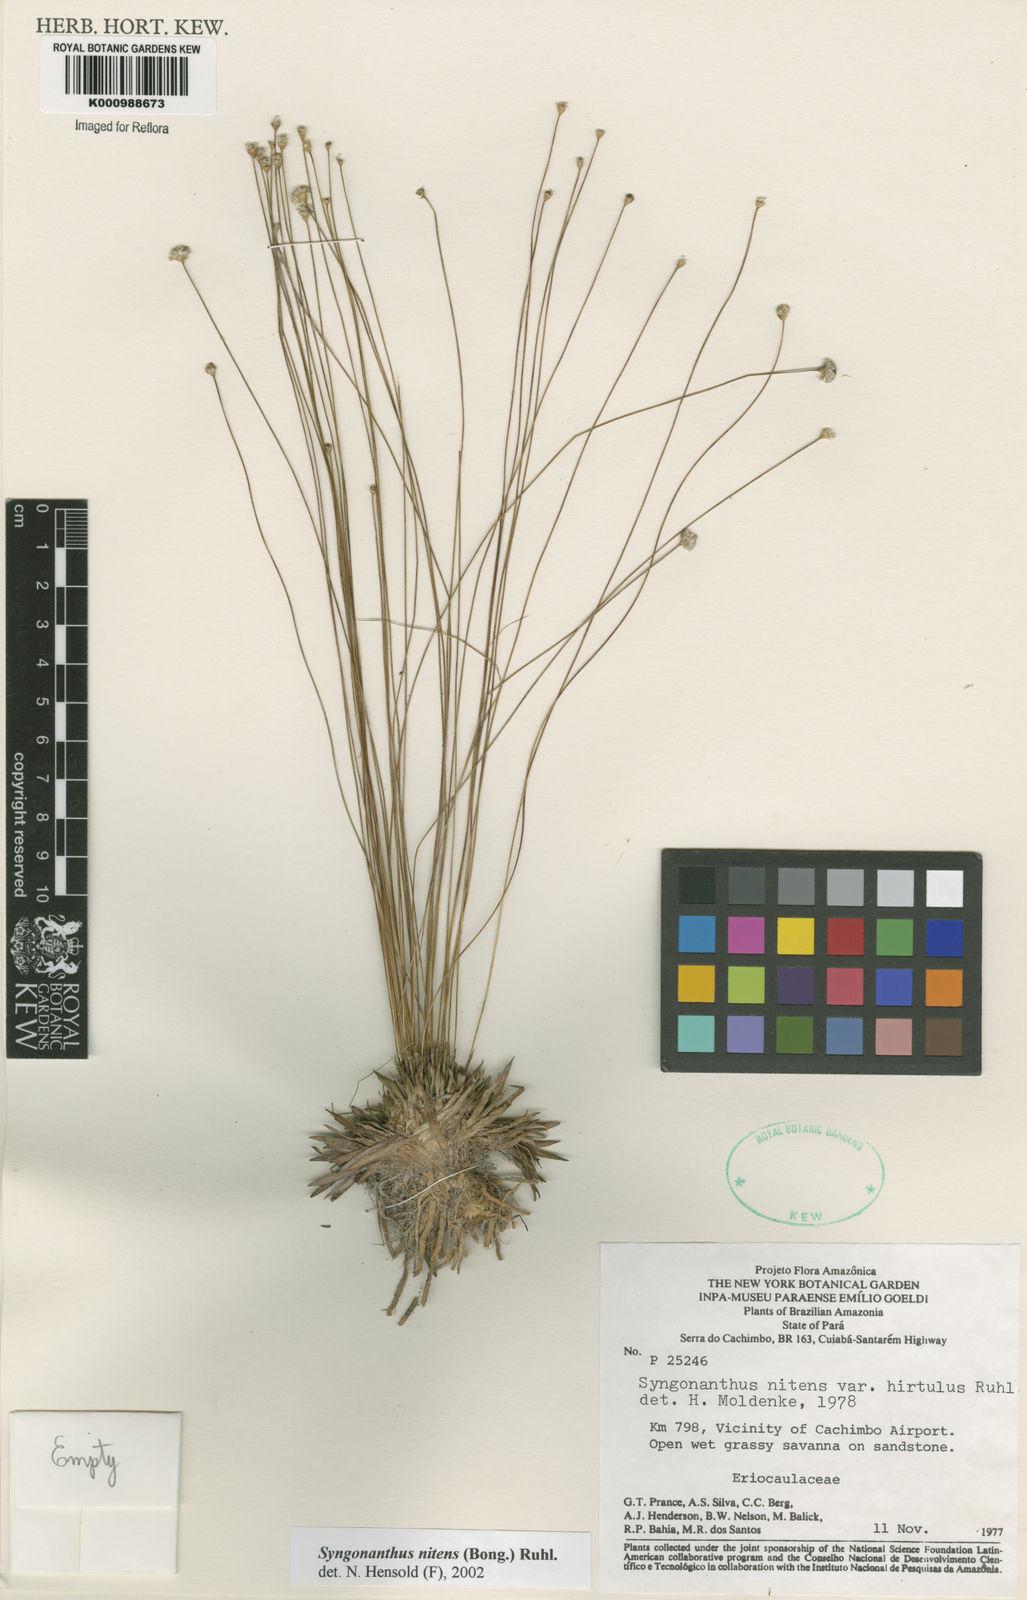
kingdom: Plantae
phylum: Tracheophyta
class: Liliopsida
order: Poales
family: Eriocaulaceae
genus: Syngonanthus
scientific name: Syngonanthus nitens
